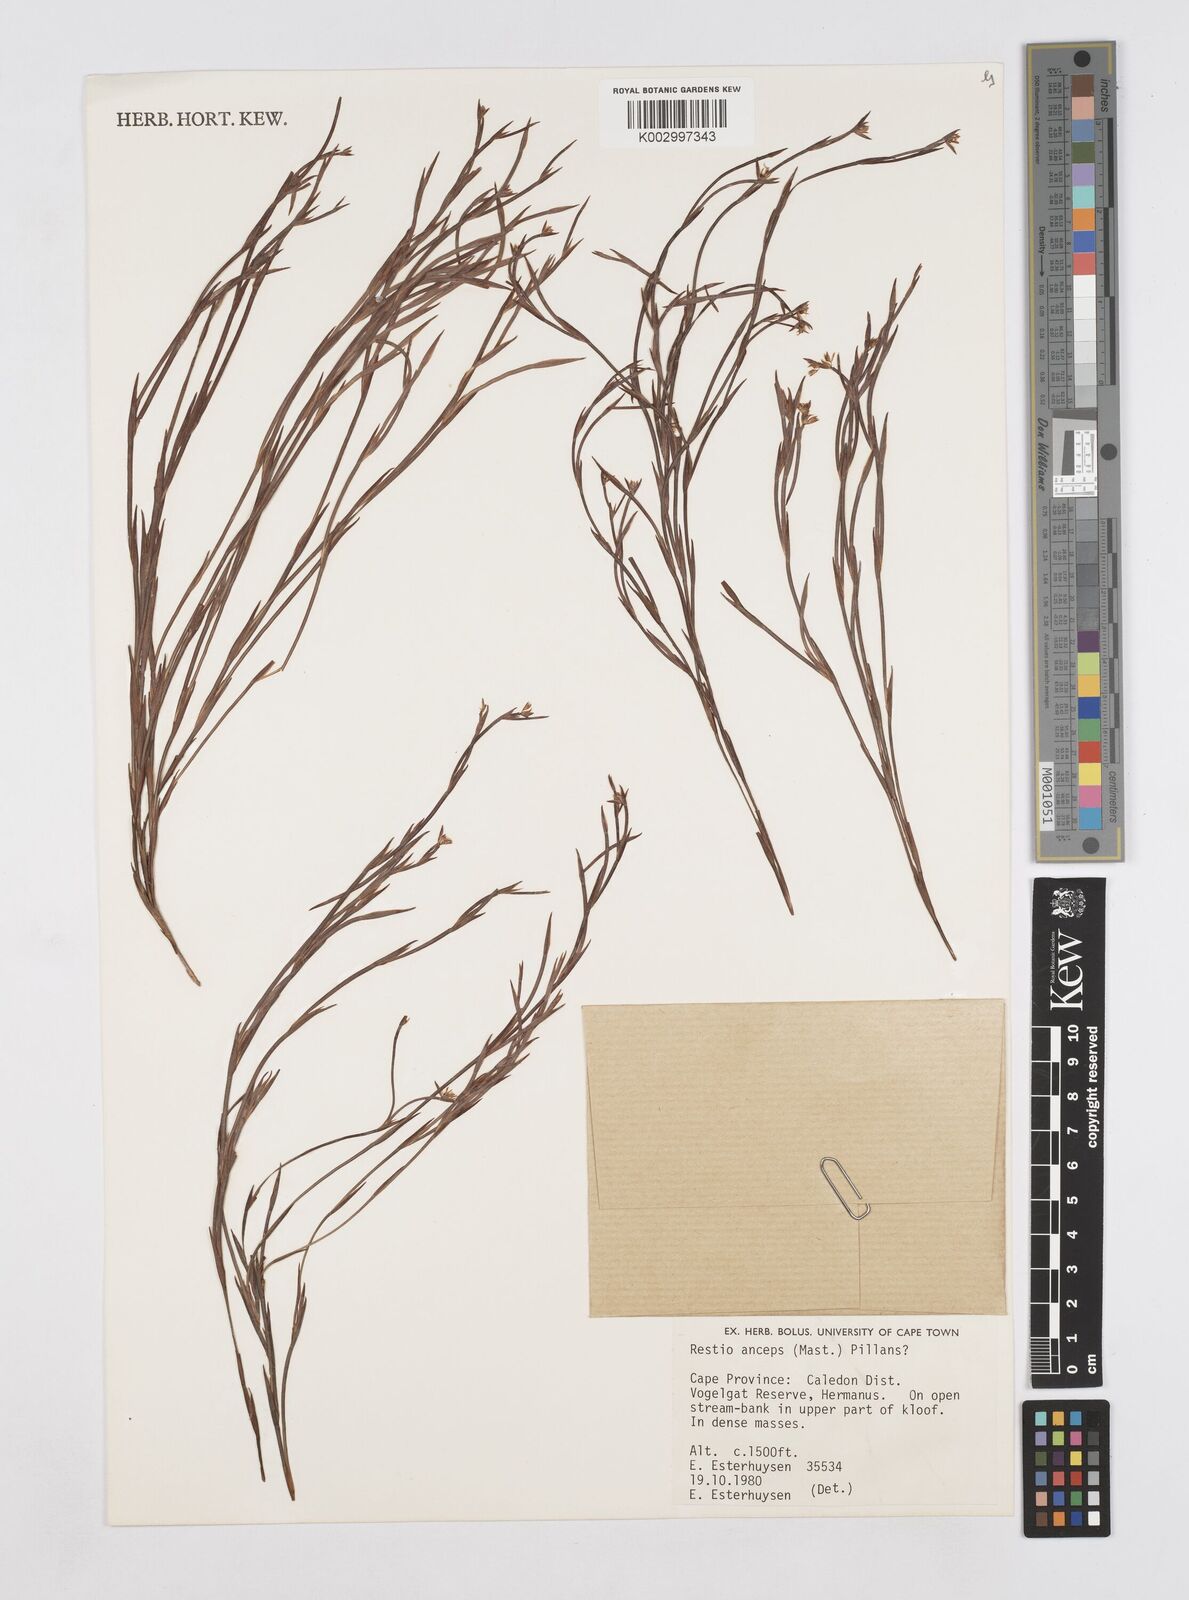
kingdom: Plantae
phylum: Tracheophyta
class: Liliopsida
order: Poales
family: Restionaceae
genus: Platycaulos
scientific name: Platycaulos anceps
